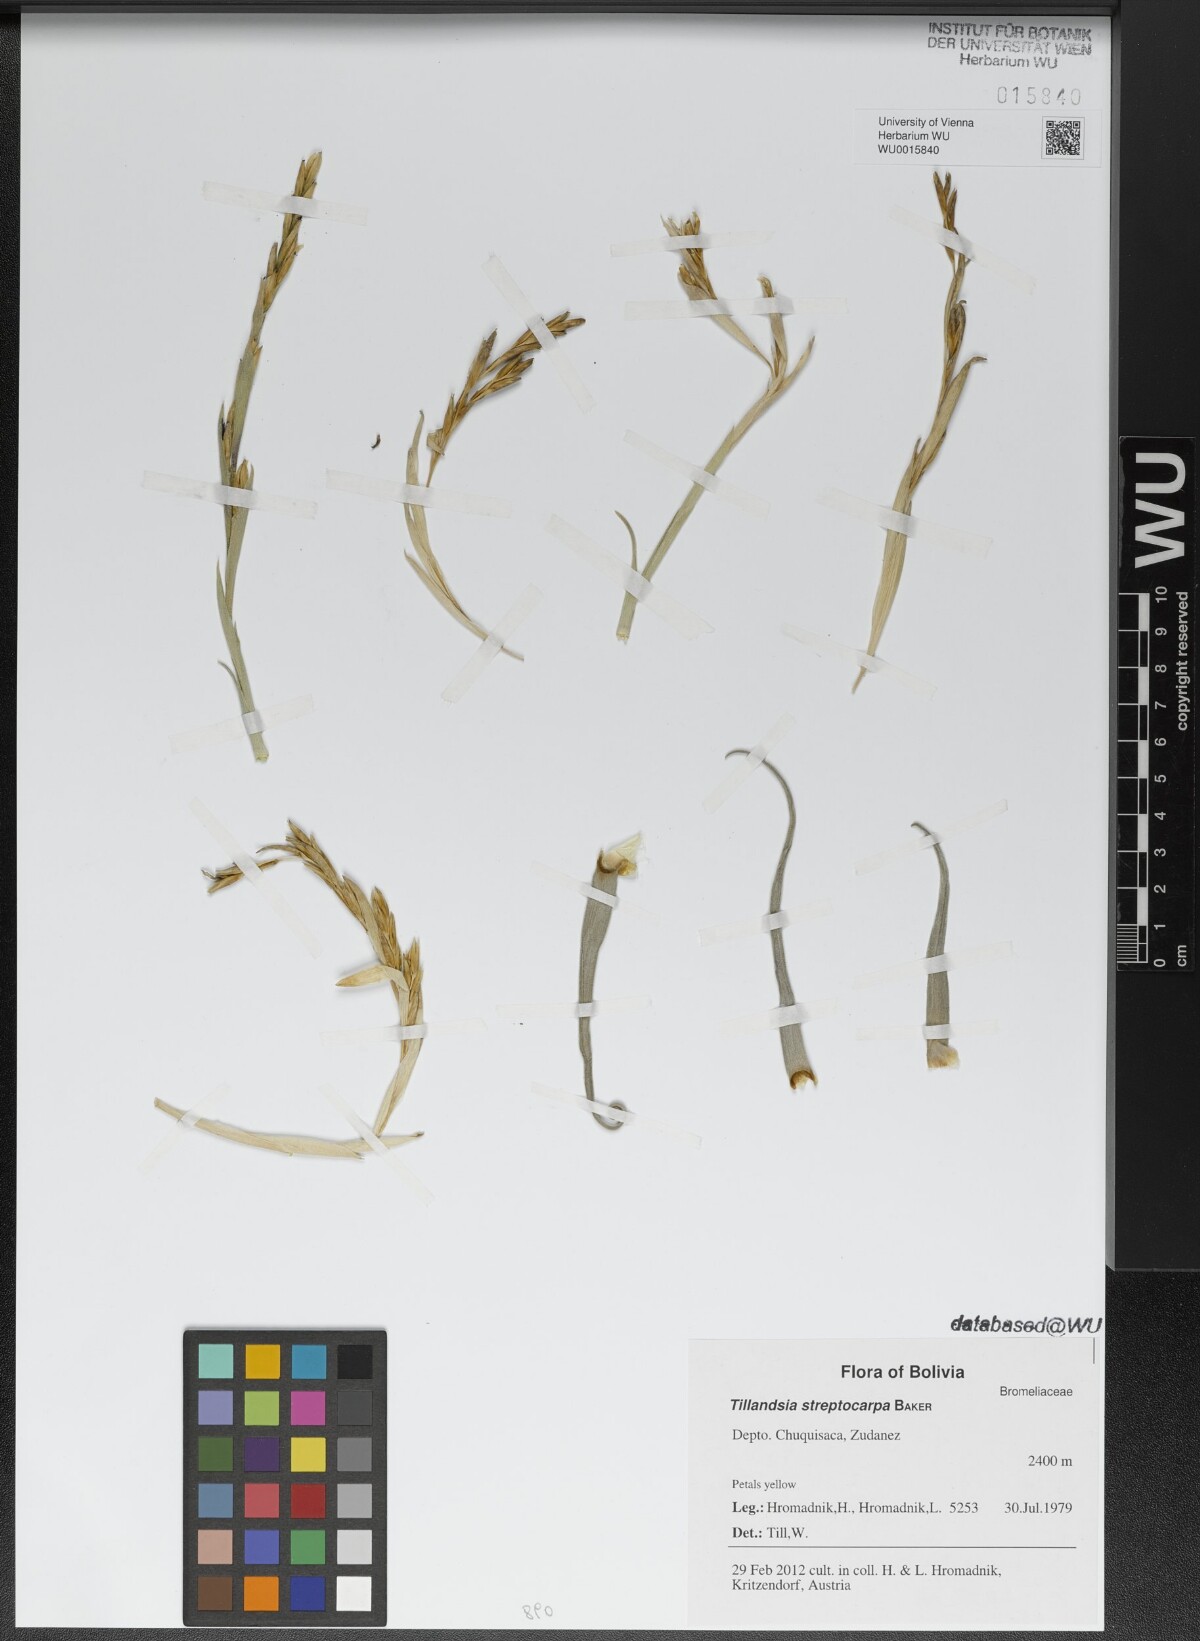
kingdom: Plantae
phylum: Tracheophyta
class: Liliopsida
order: Poales
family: Bromeliaceae
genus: Tillandsia
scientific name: Tillandsia streptocarpa
